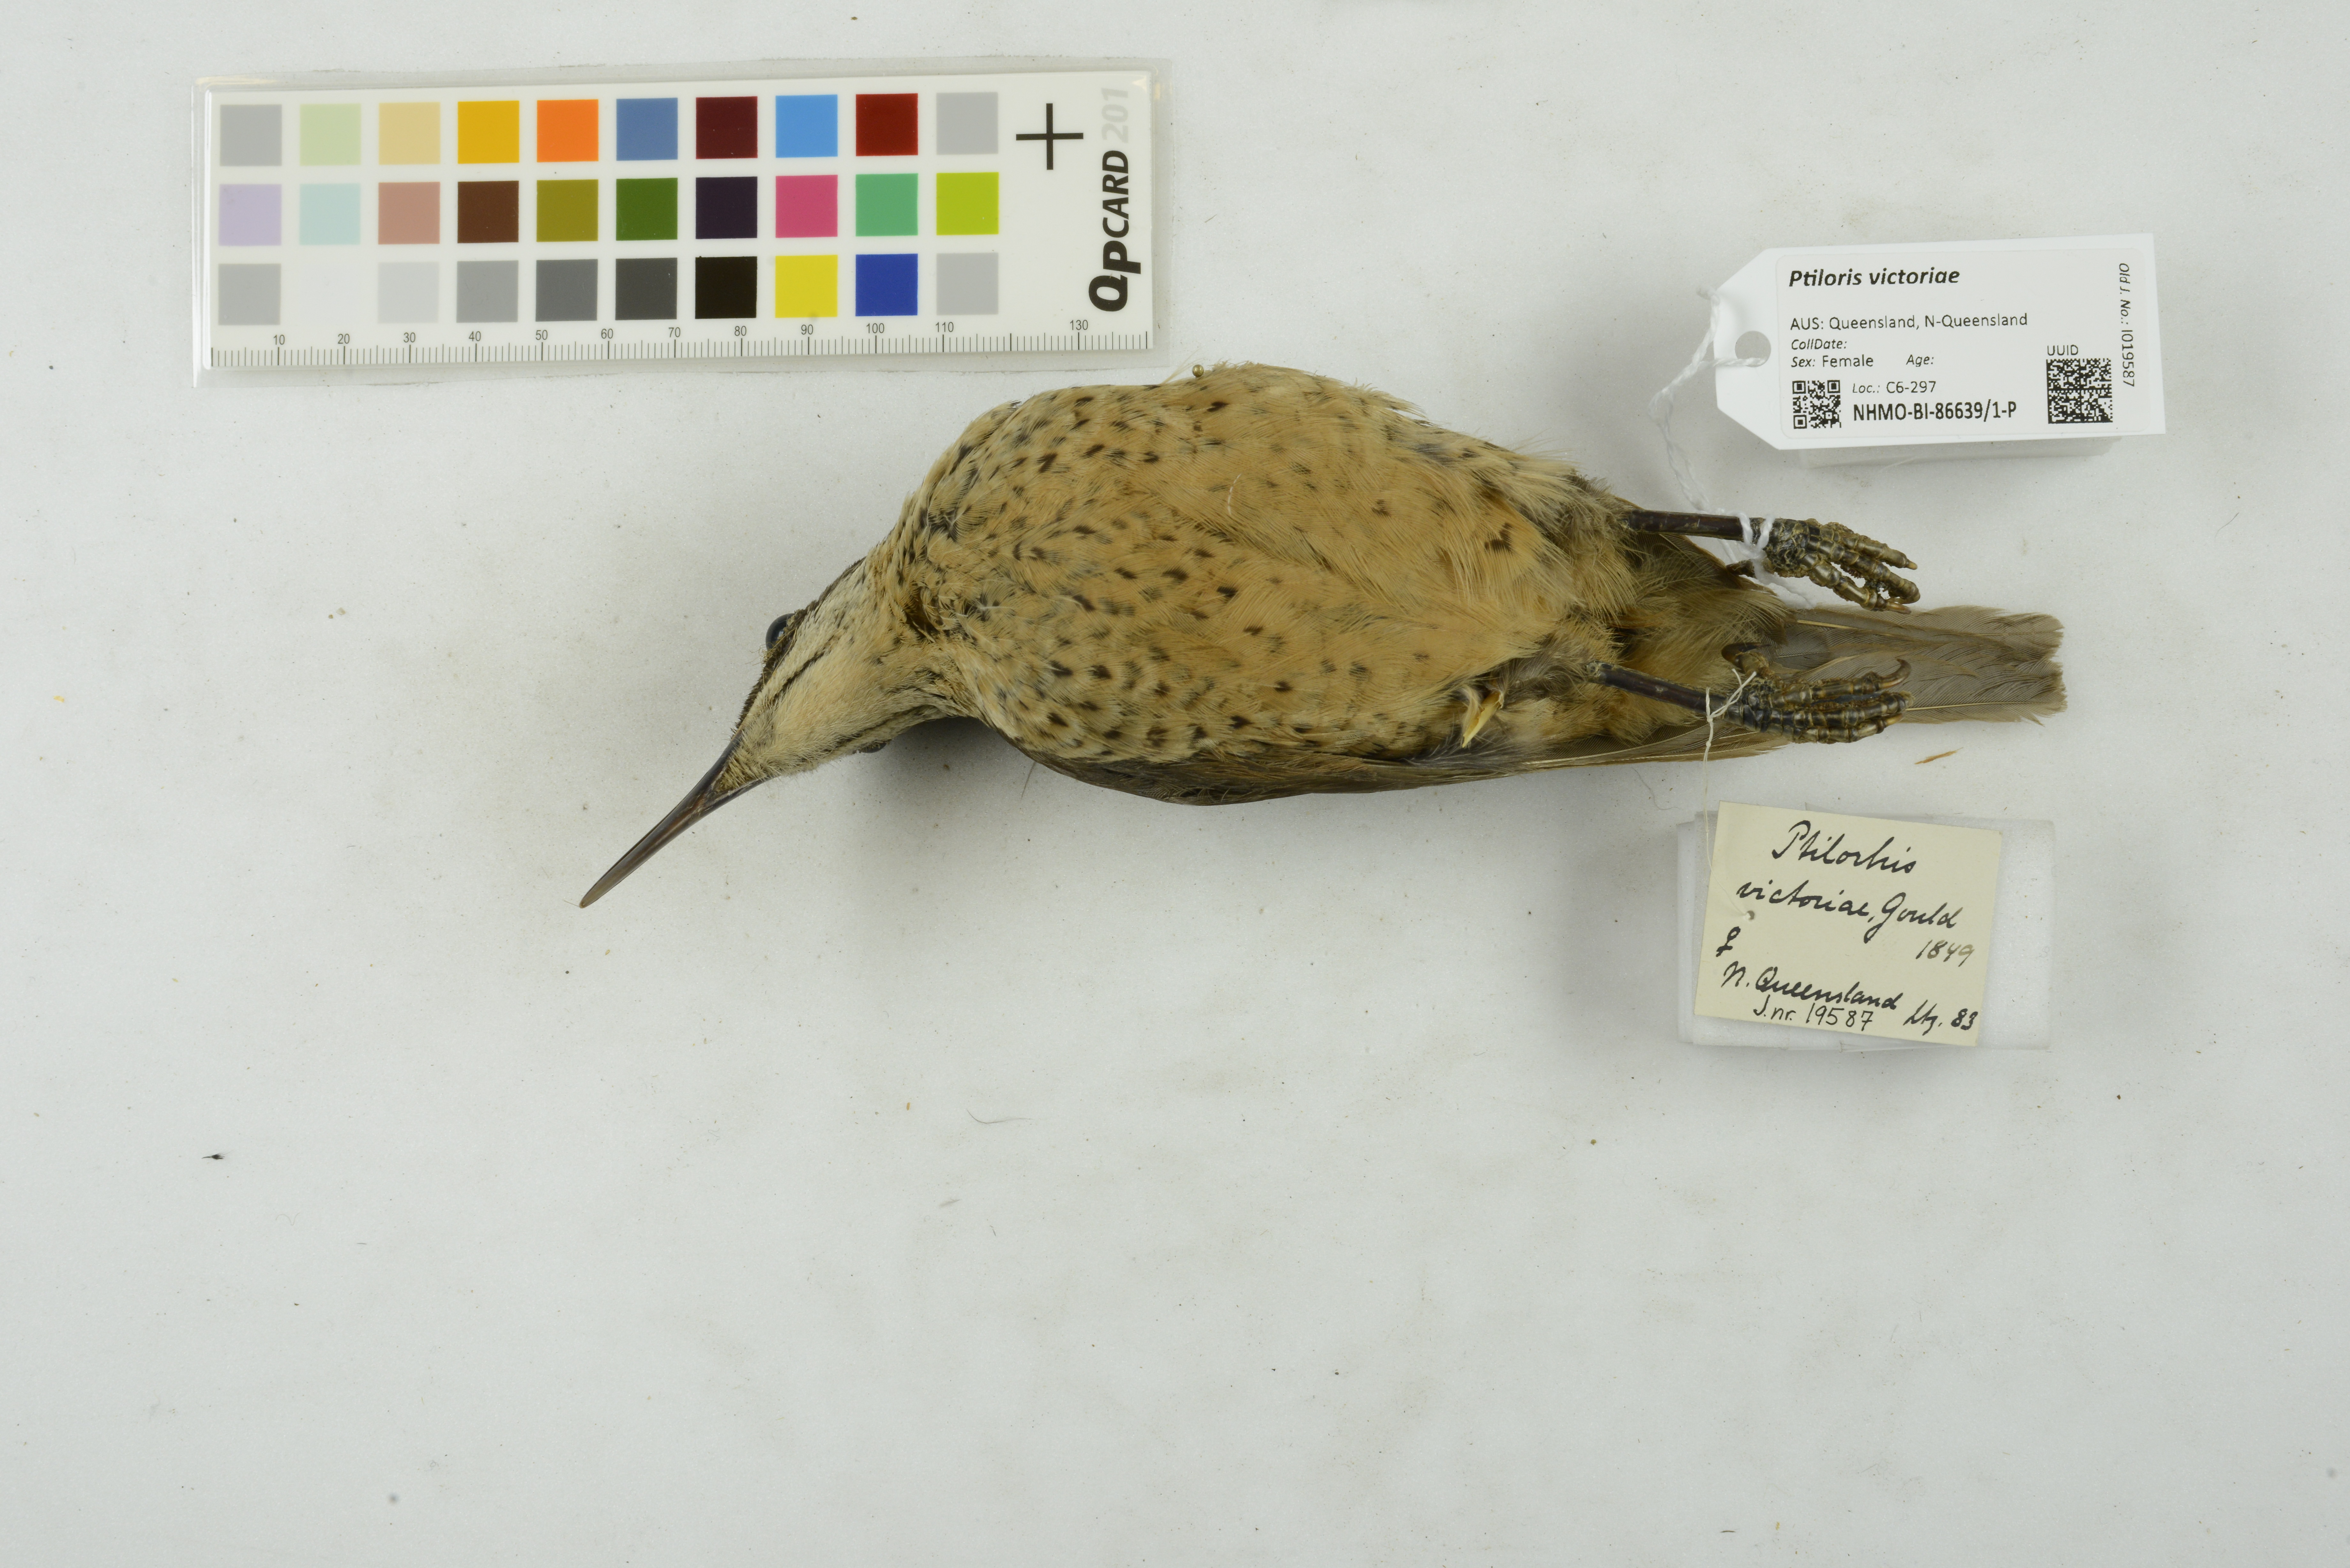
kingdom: Animalia
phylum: Chordata
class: Aves
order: Passeriformes
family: Paradisaeidae
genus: Ptiloris
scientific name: Ptiloris victoriae
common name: Victoria's riflebird
